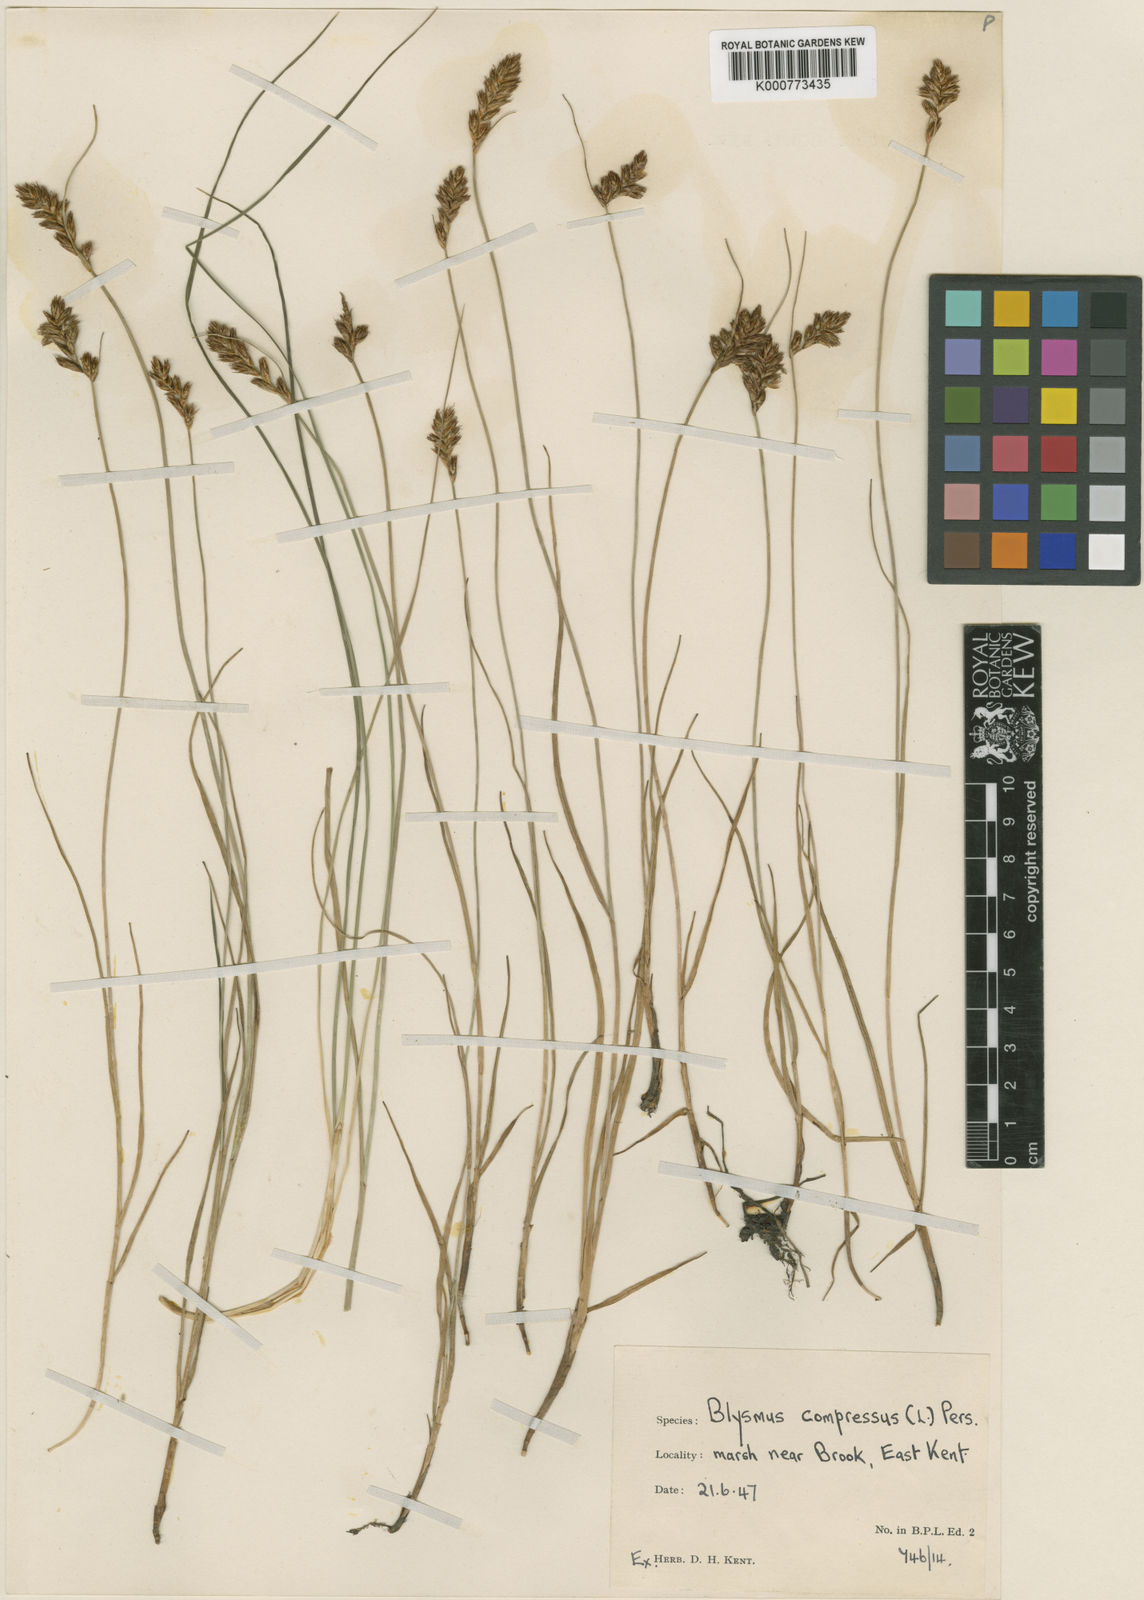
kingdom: Plantae
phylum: Tracheophyta
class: Liliopsida
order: Poales
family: Cyperaceae
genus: Blysmus
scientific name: Blysmus compressus
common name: Flat-sedge
